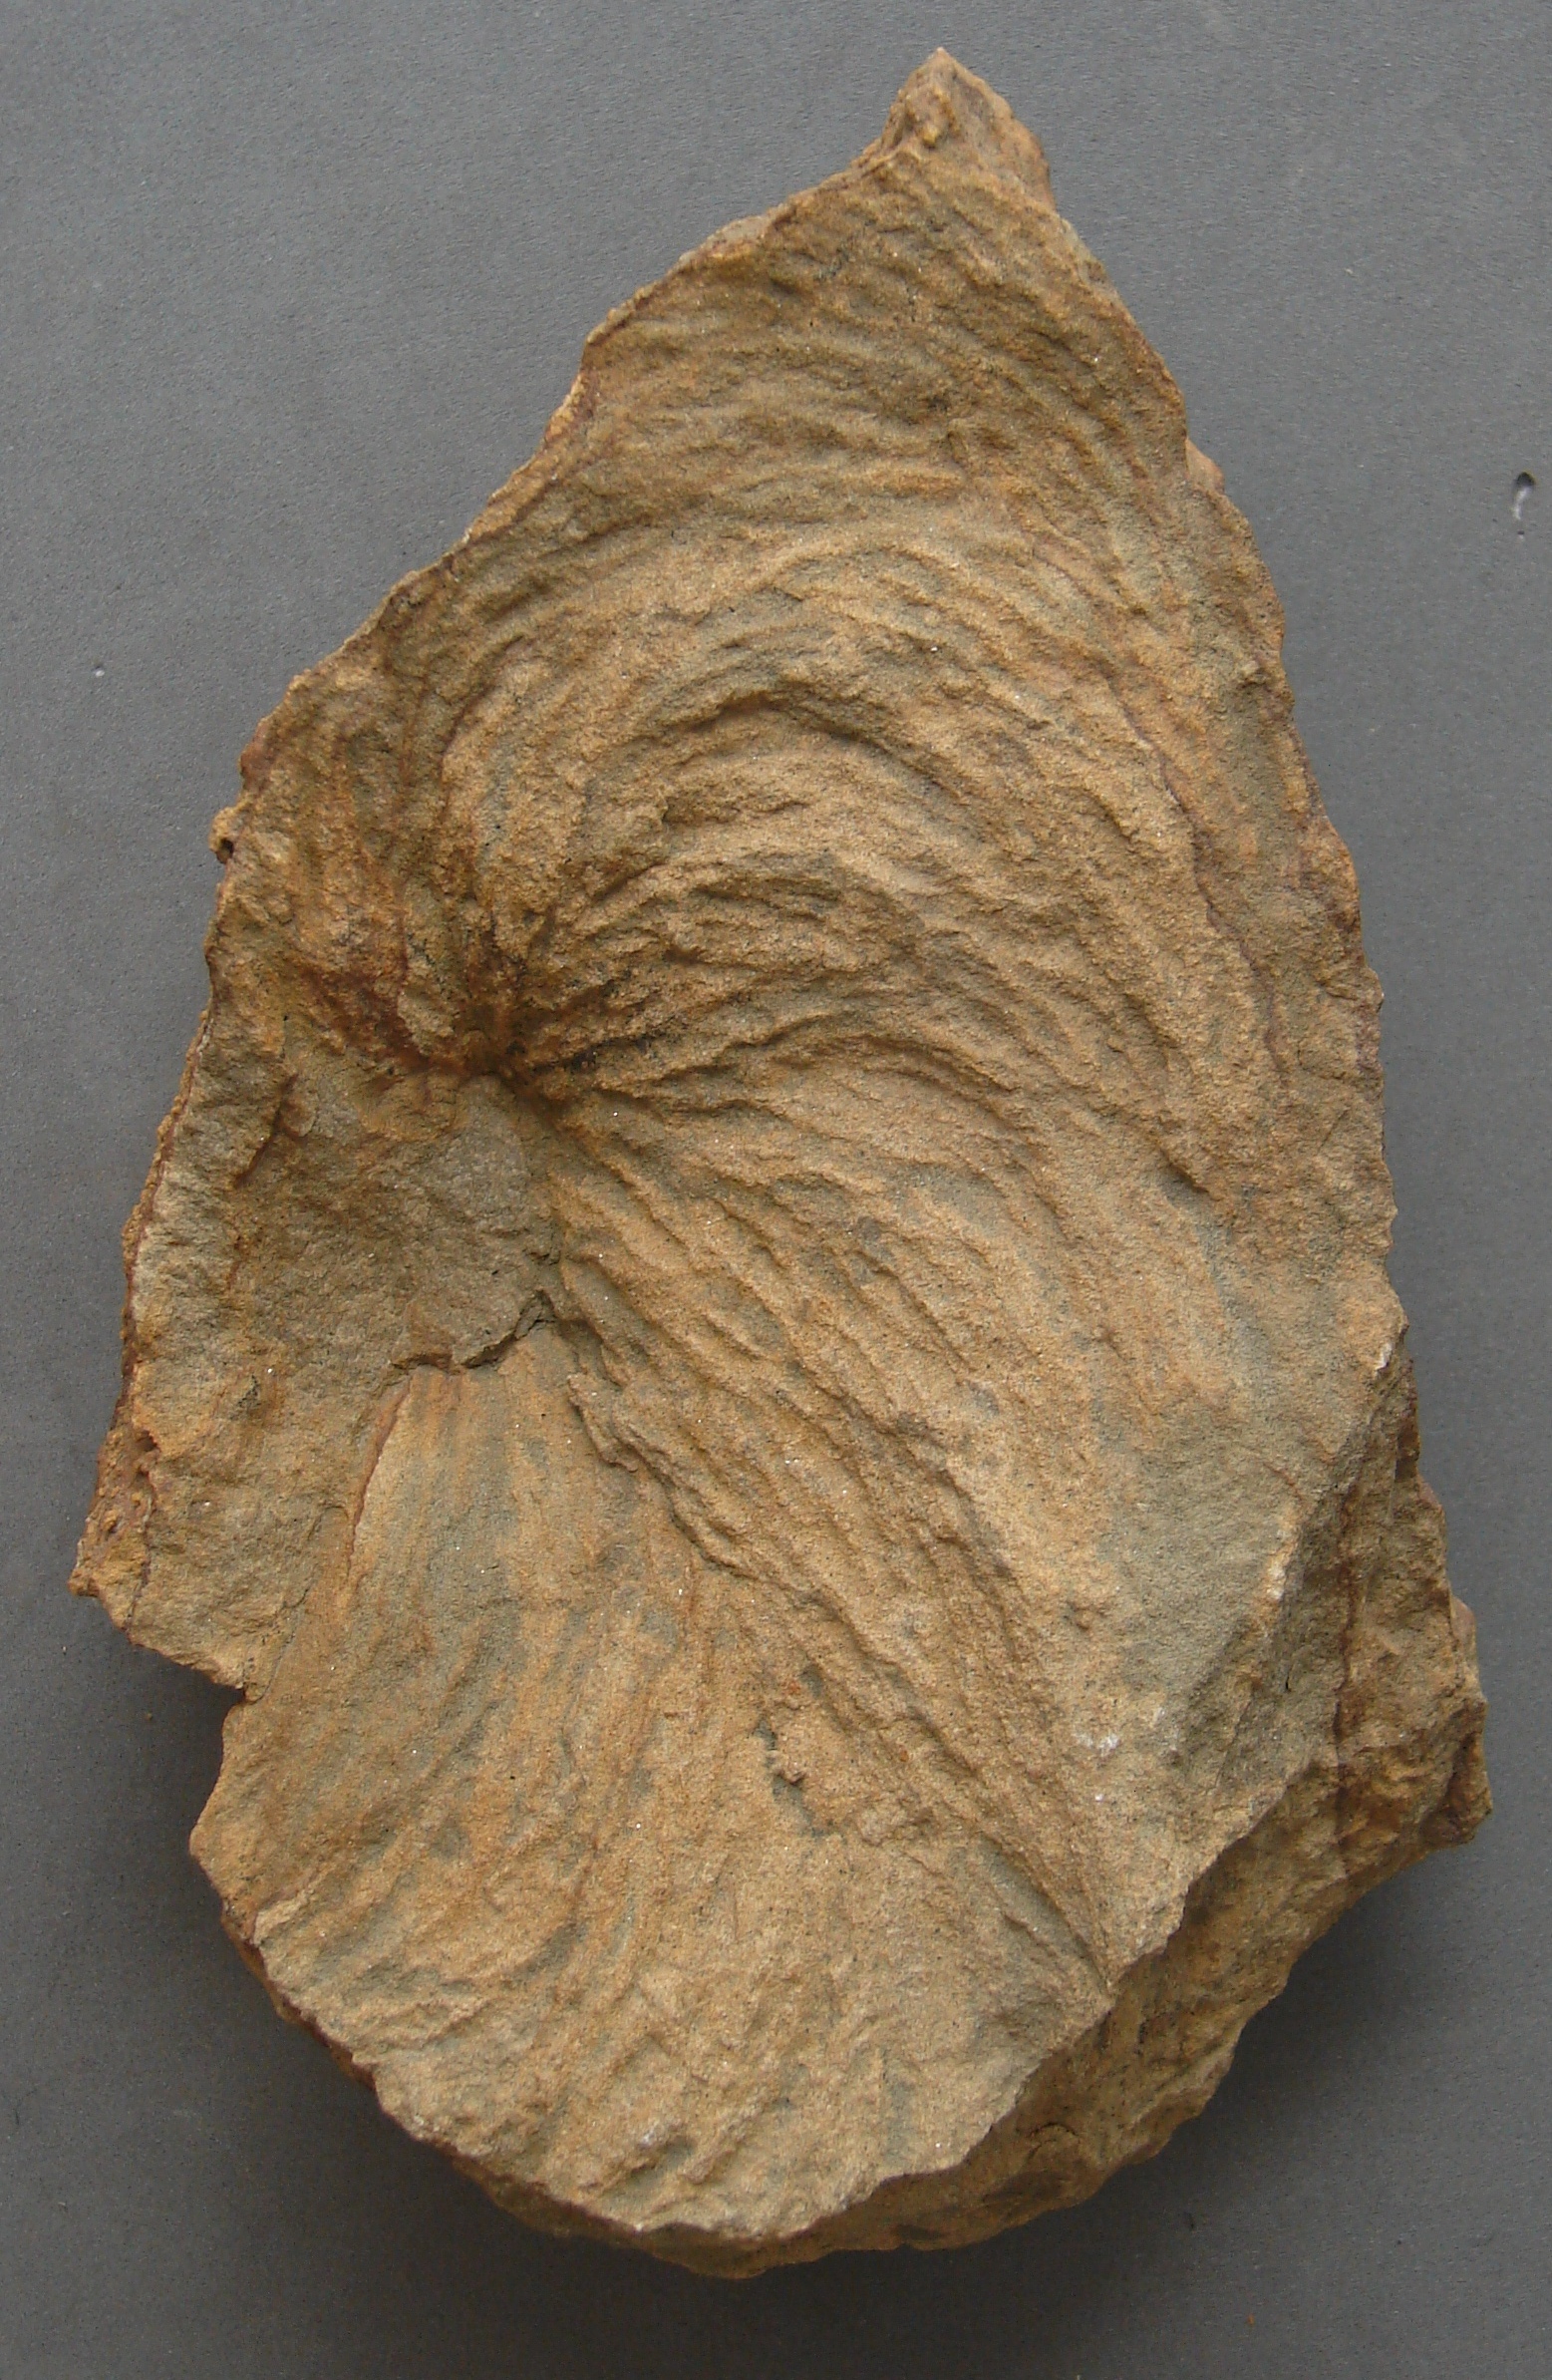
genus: Zoophycus
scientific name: Zoophycus
